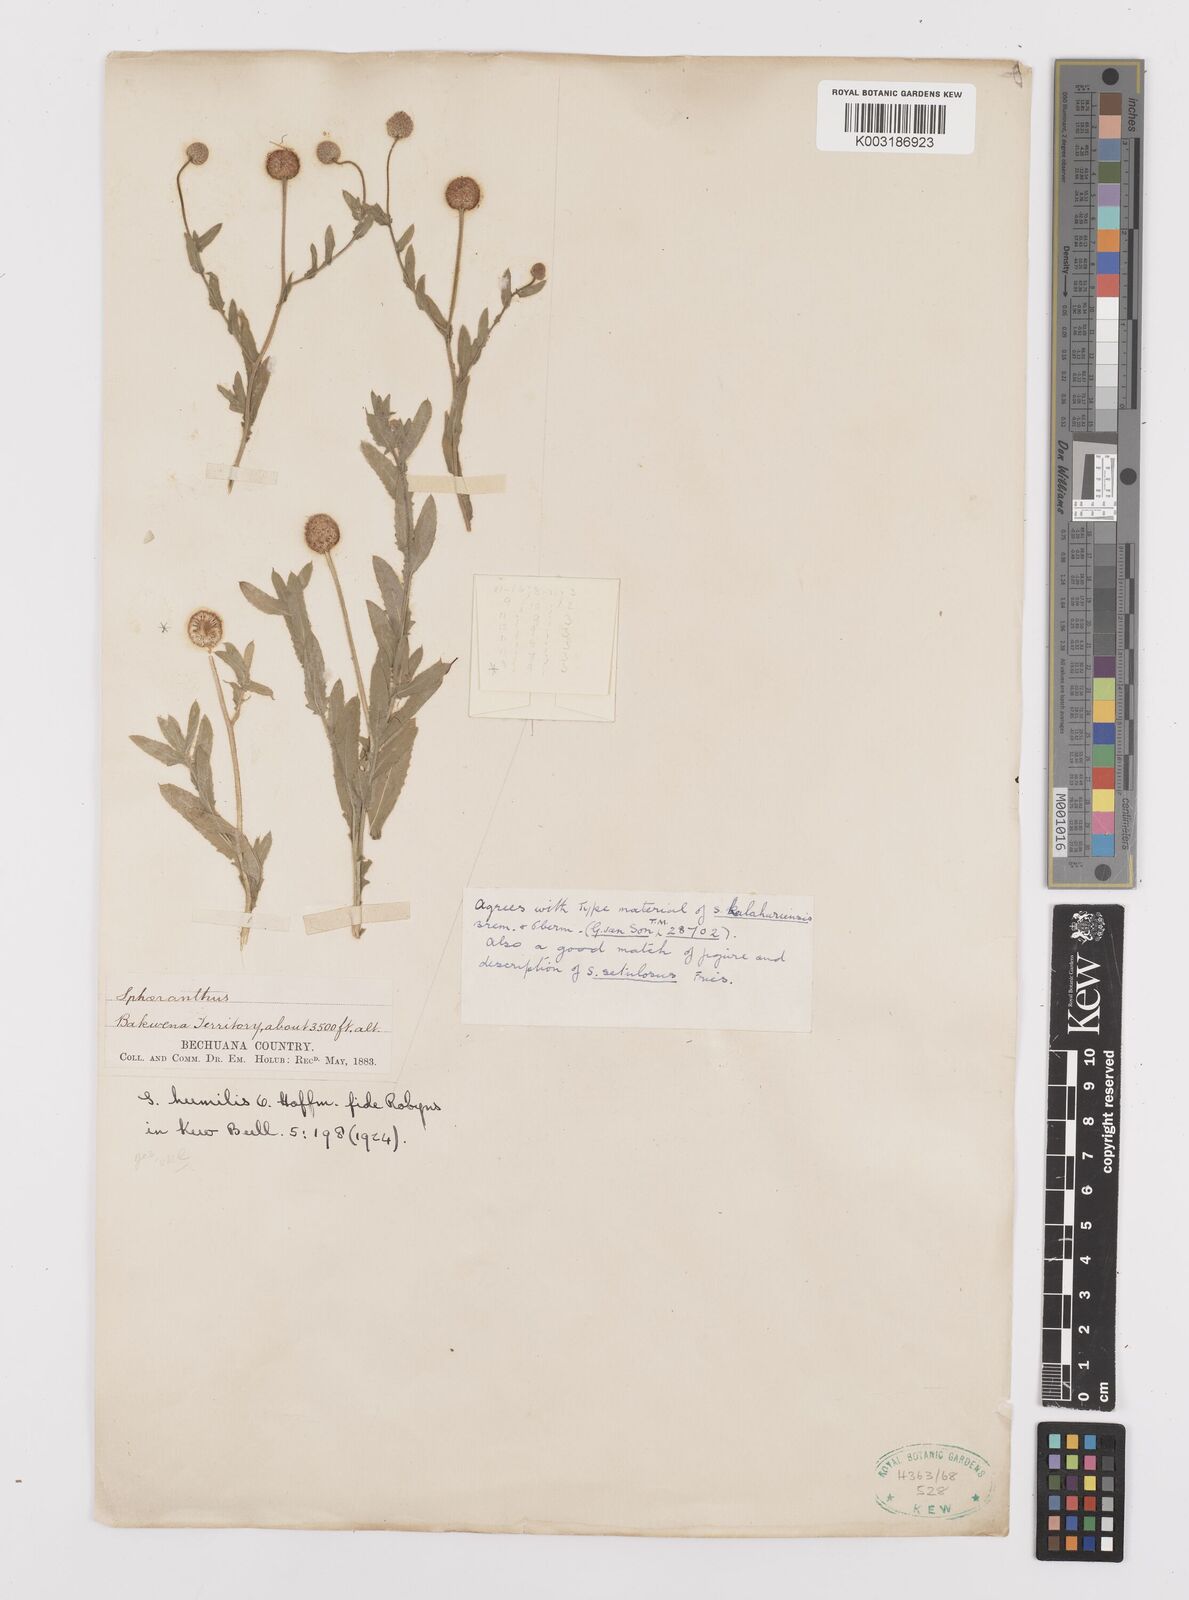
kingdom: Plantae
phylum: Tracheophyta
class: Magnoliopsida
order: Asterales
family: Asteraceae
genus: Sphaeranthus
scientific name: Sphaeranthus flexuosus
